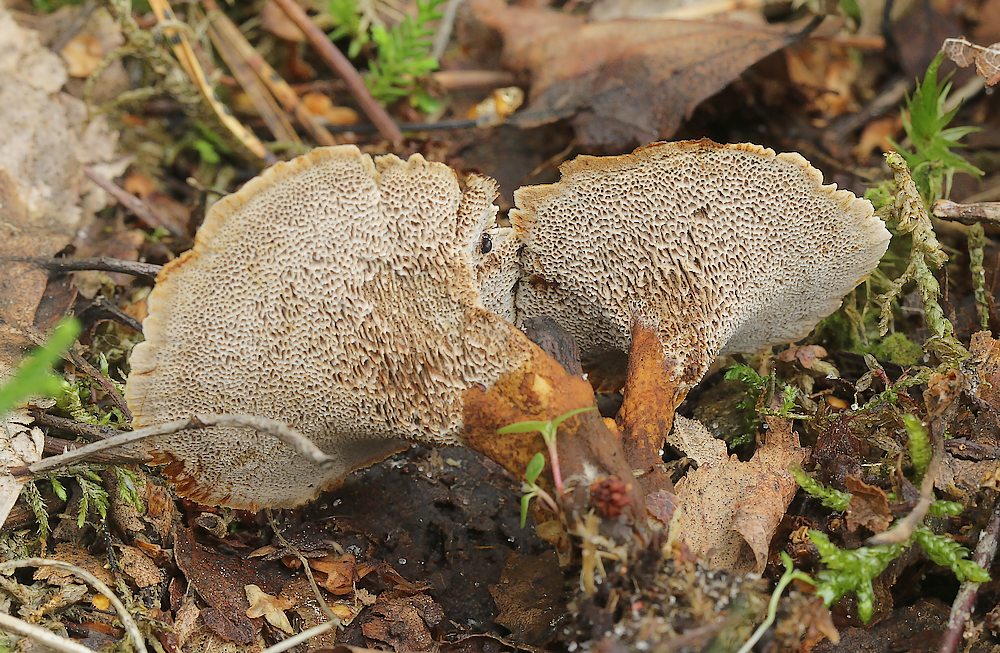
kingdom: Fungi
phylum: Basidiomycota
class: Agaricomycetes
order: Hymenochaetales
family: Hymenochaetaceae
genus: Coltricia
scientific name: Coltricia perennis
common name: almindelig sandporesvamp
